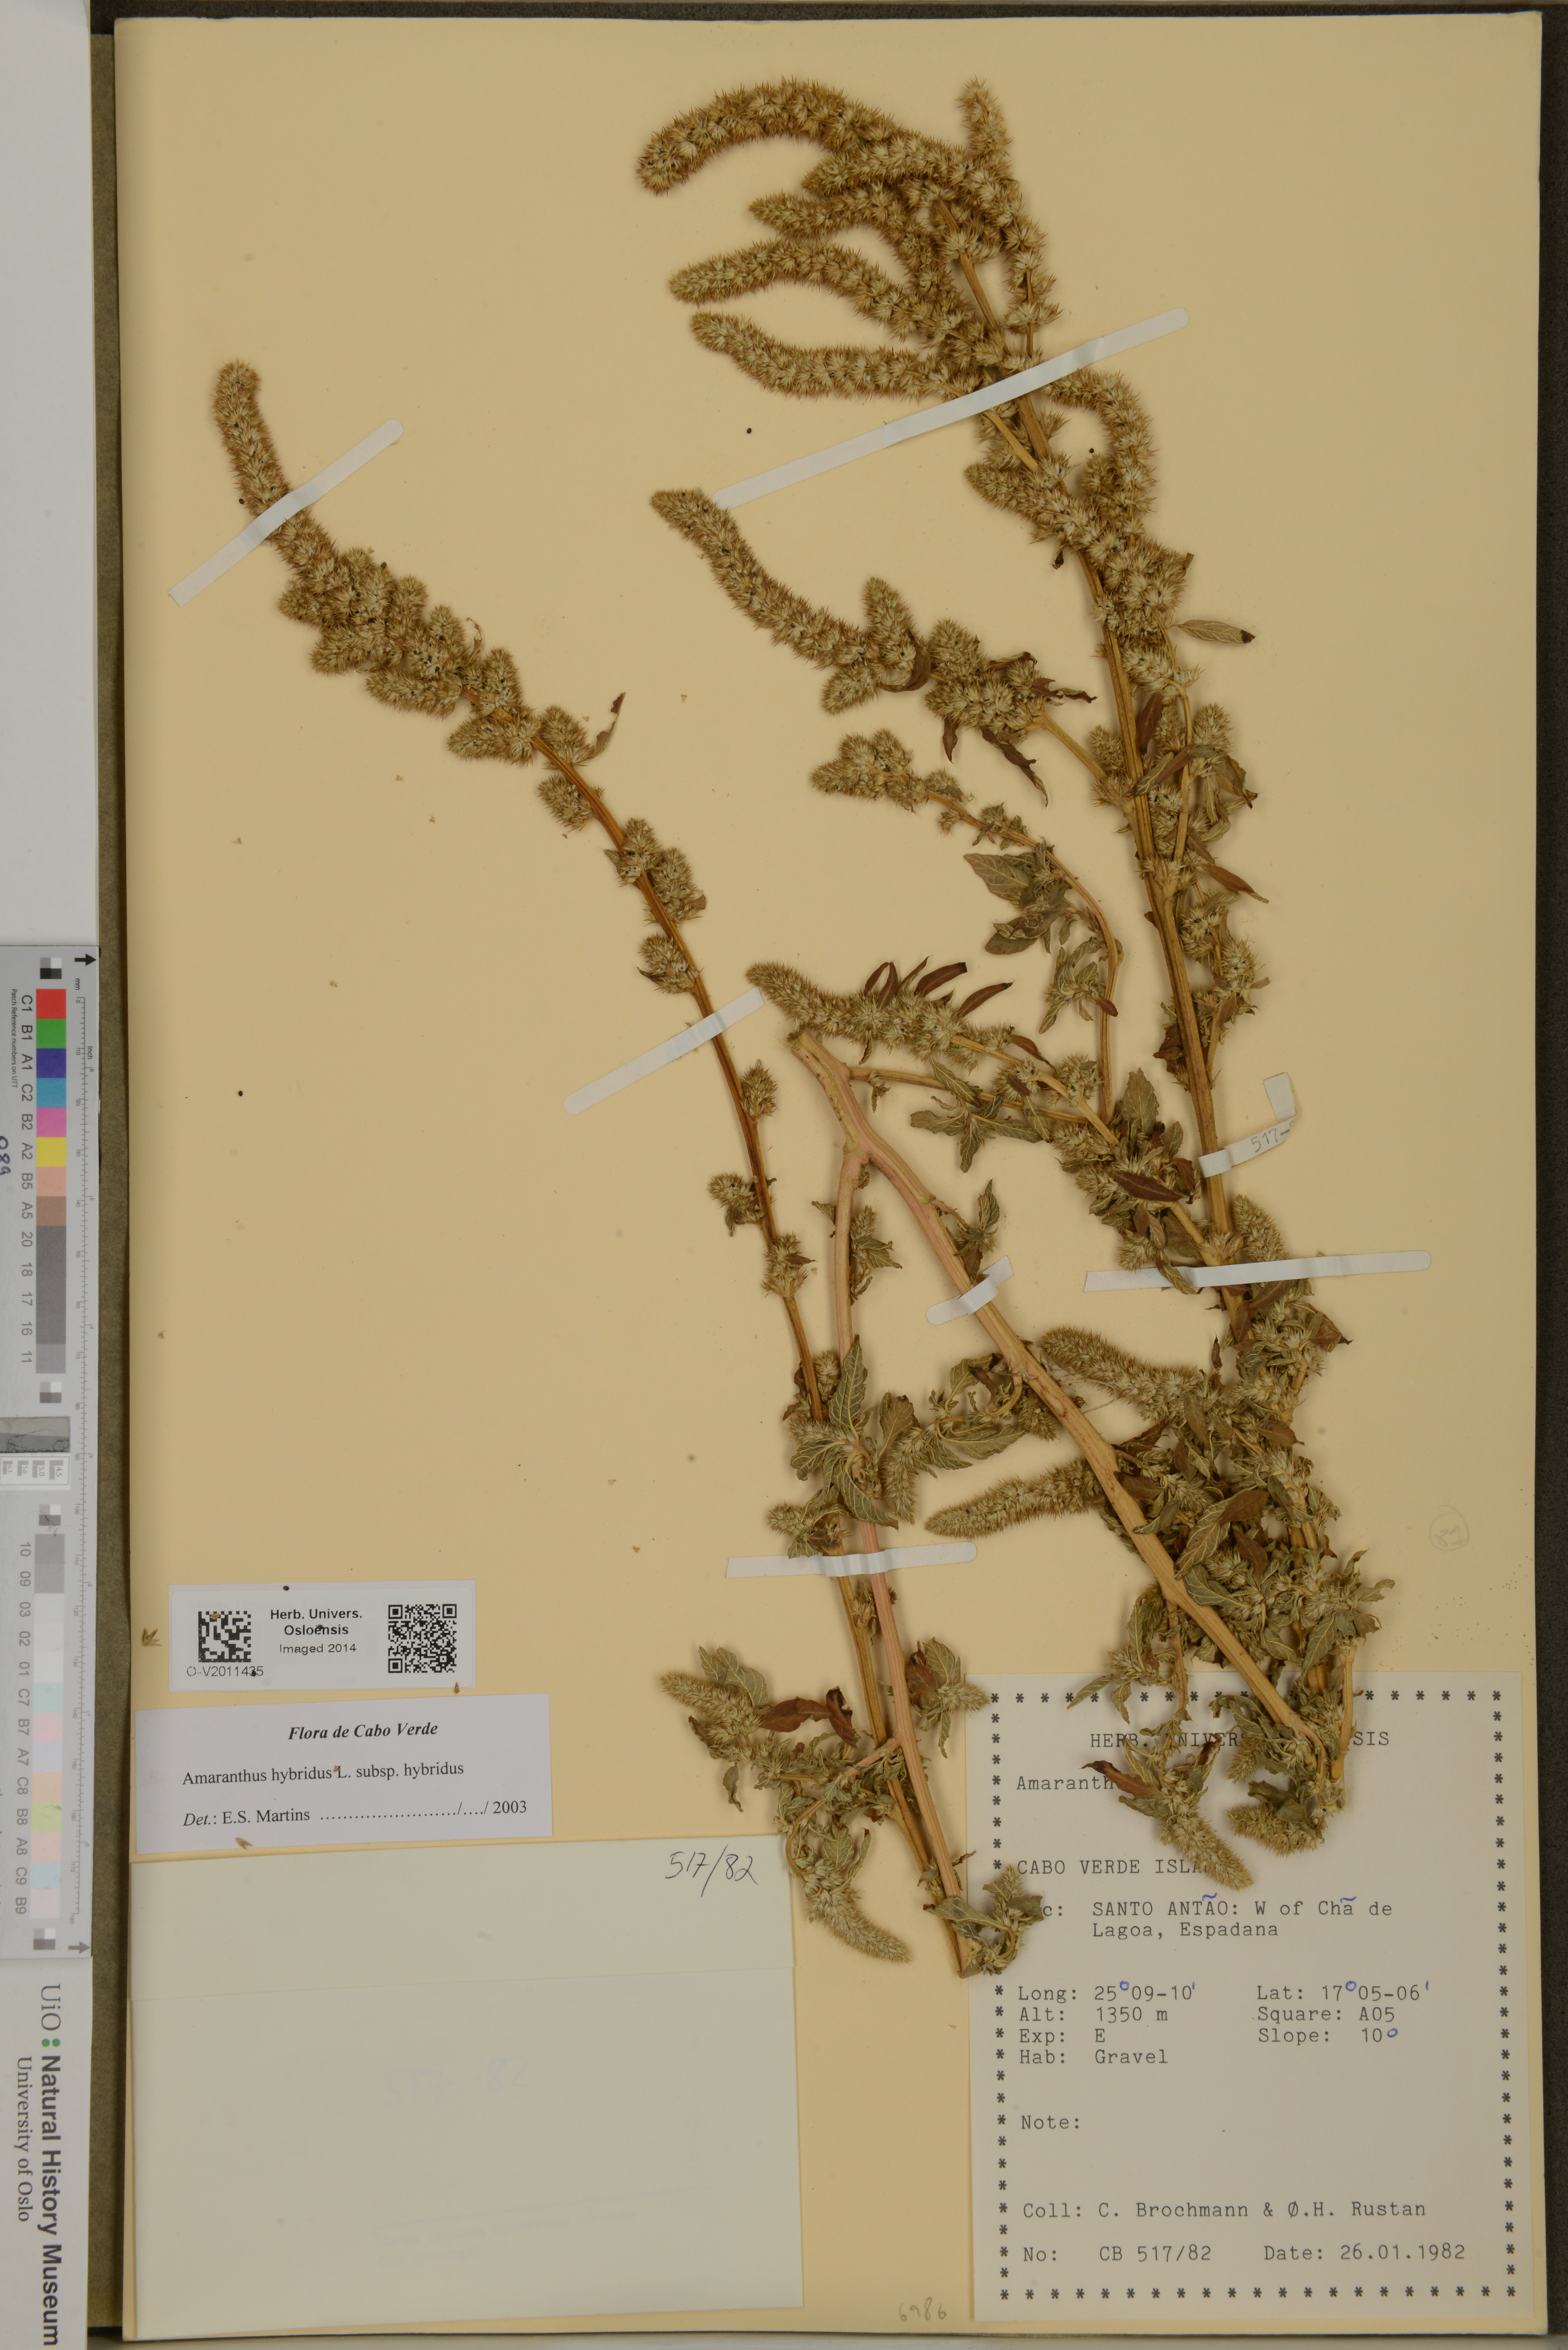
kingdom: Plantae
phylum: Tracheophyta
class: Magnoliopsida
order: Caryophyllales
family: Amaranthaceae
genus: Amaranthus
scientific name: Amaranthus hybridus
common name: Green amaranth
